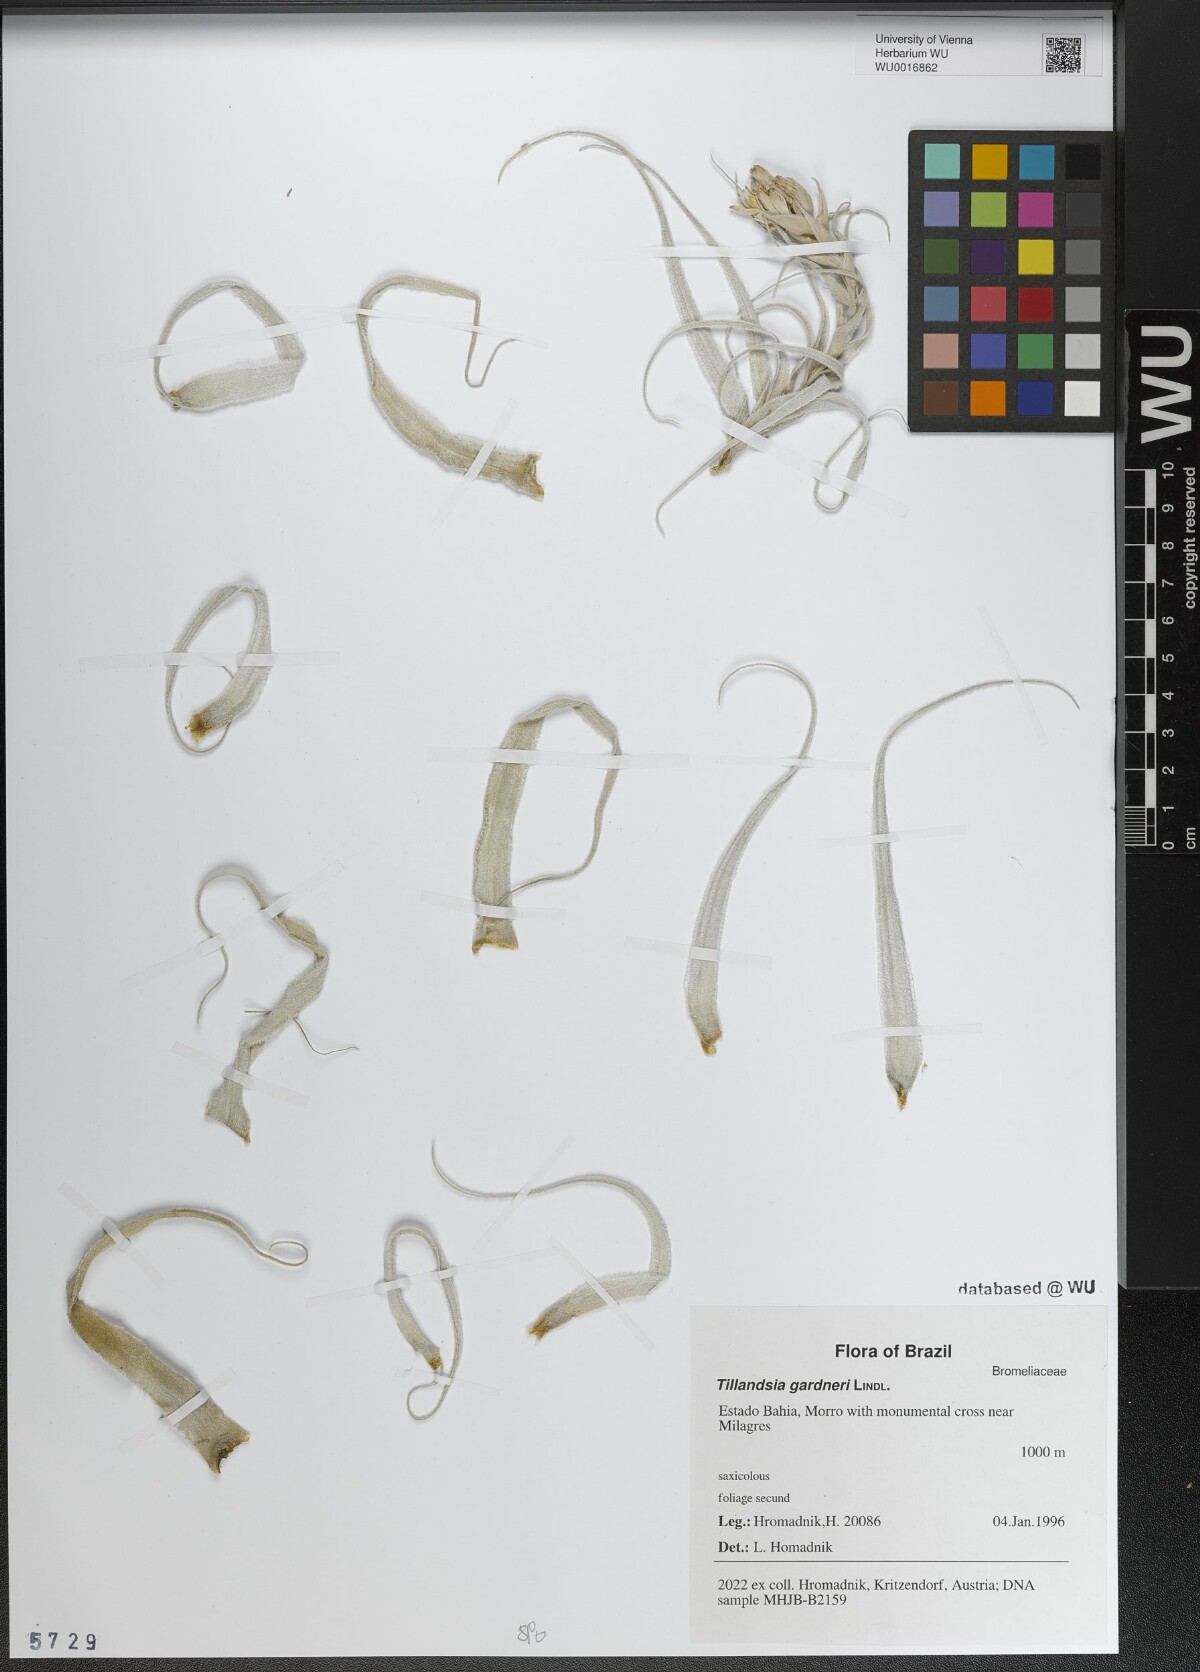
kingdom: Plantae
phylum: Tracheophyta
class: Liliopsida
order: Poales
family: Bromeliaceae
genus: Tillandsia
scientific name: Tillandsia gardneri
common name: Airplant
